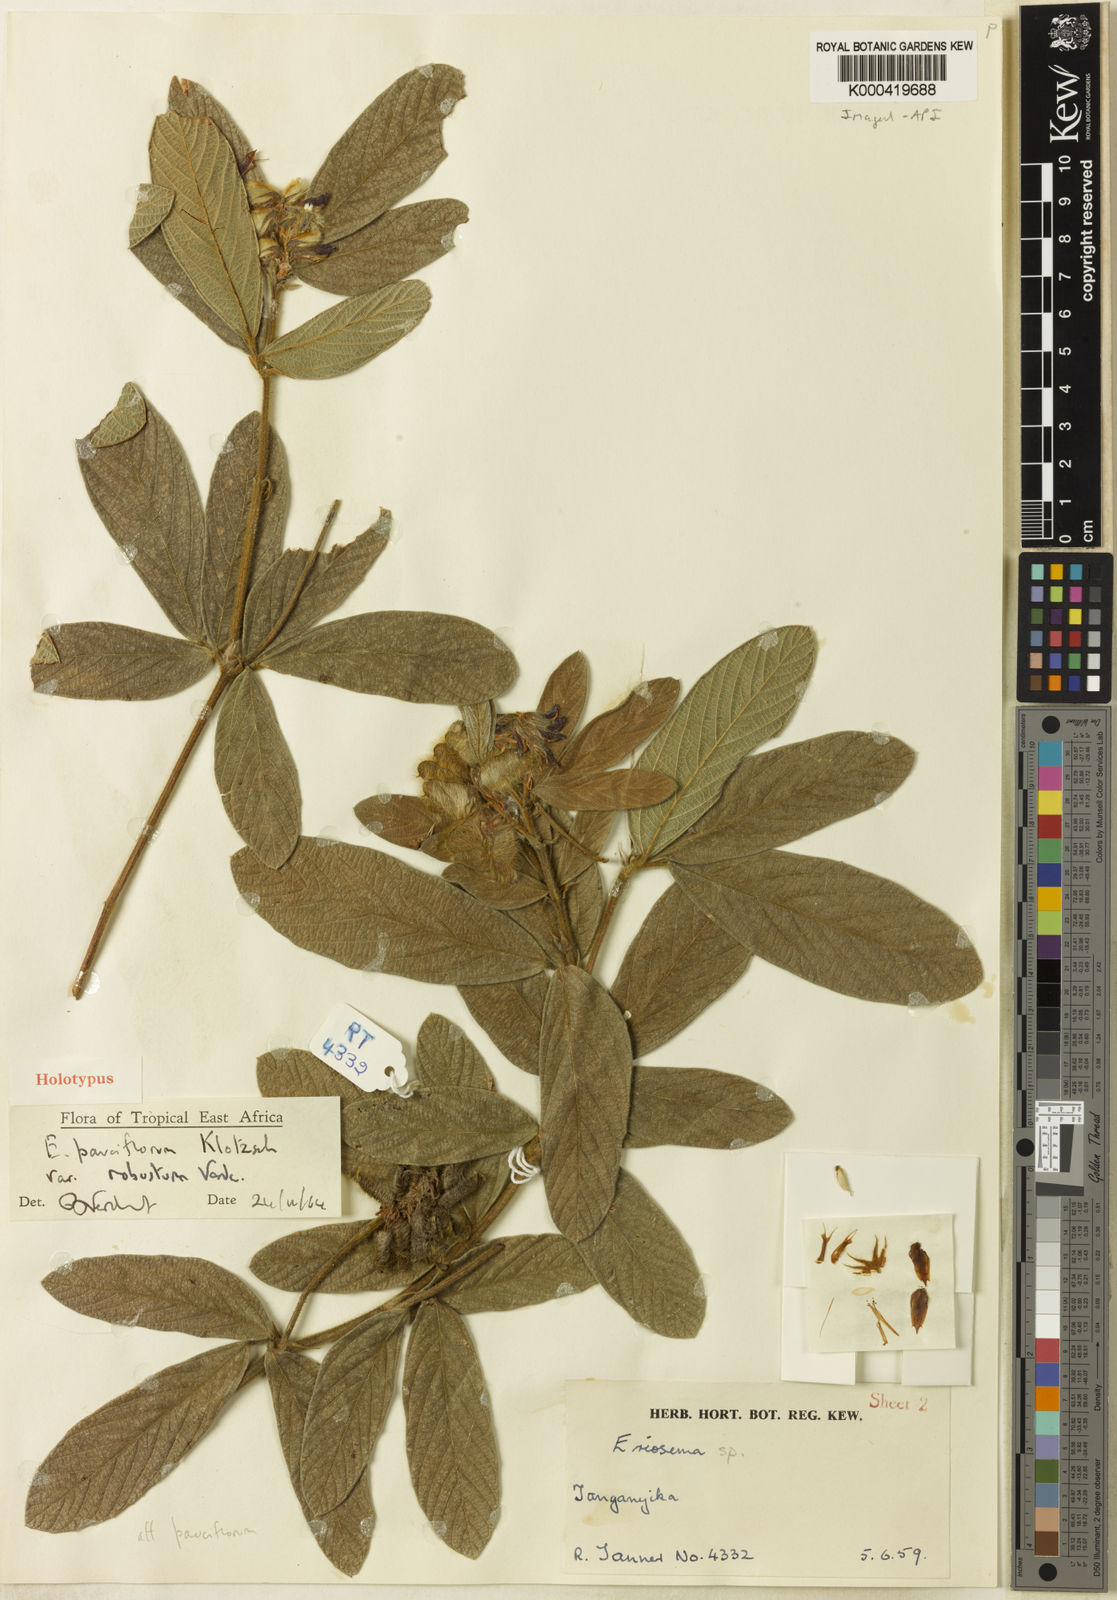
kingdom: Plantae
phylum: Tracheophyta
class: Magnoliopsida
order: Fabales
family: Fabaceae
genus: Eriosema
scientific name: Eriosema pauciflorum
